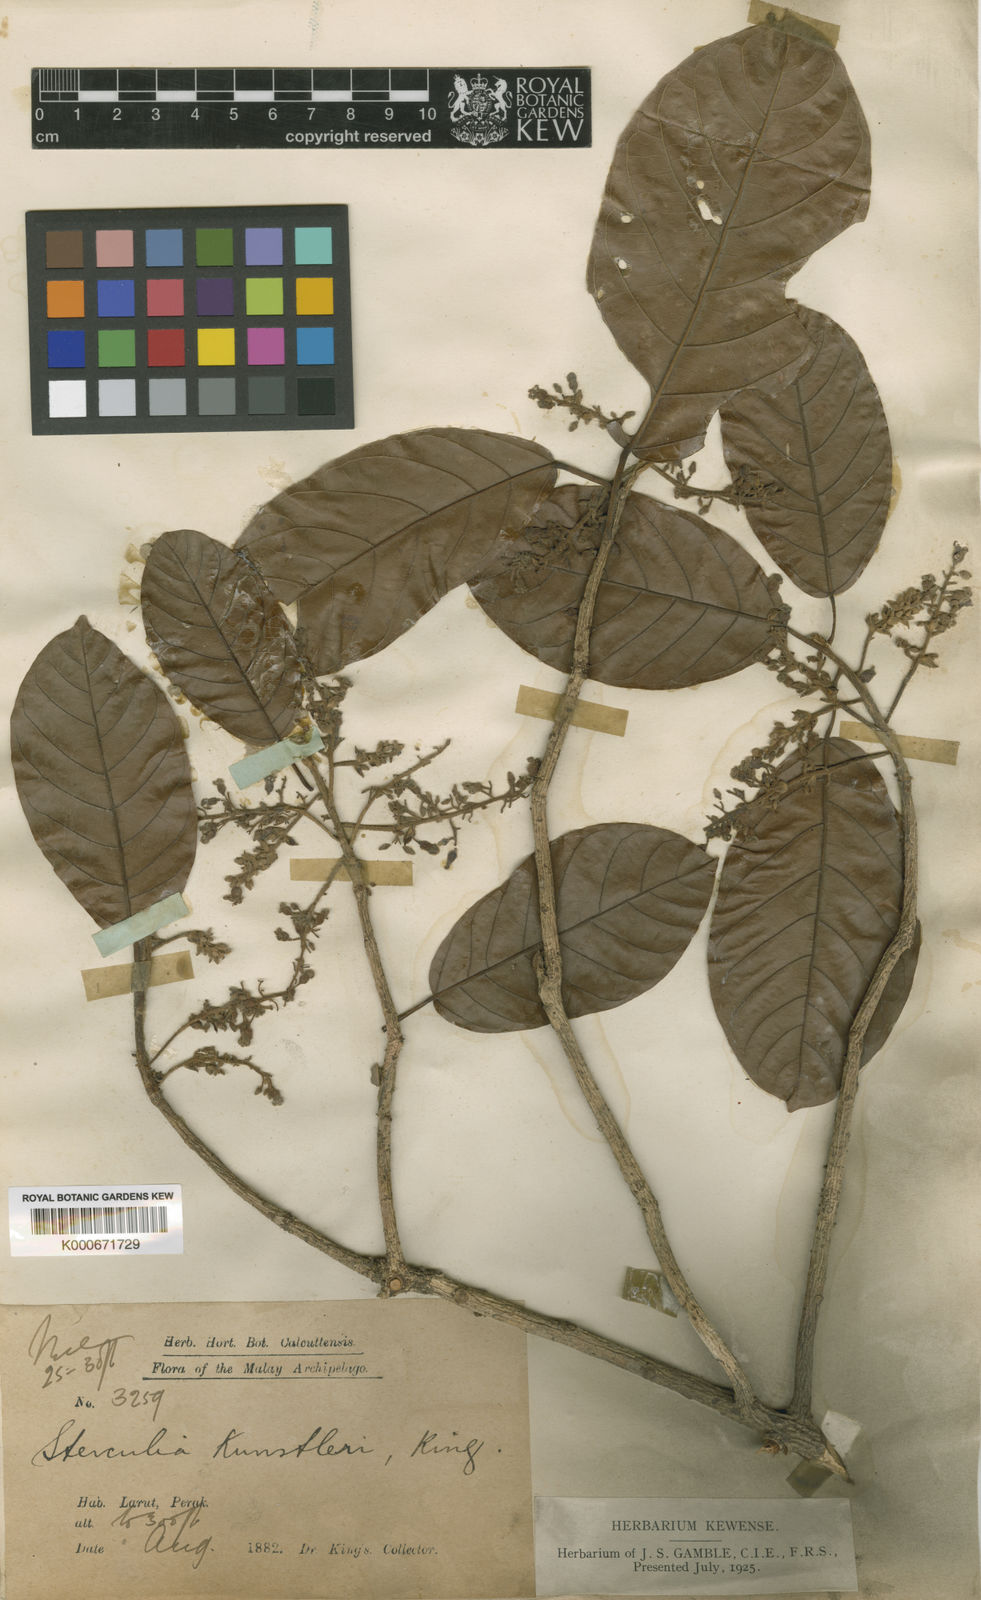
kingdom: Plantae
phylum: Tracheophyta
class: Magnoliopsida
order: Malvales
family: Malvaceae
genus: Sterculia
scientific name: Sterculia oblongata
